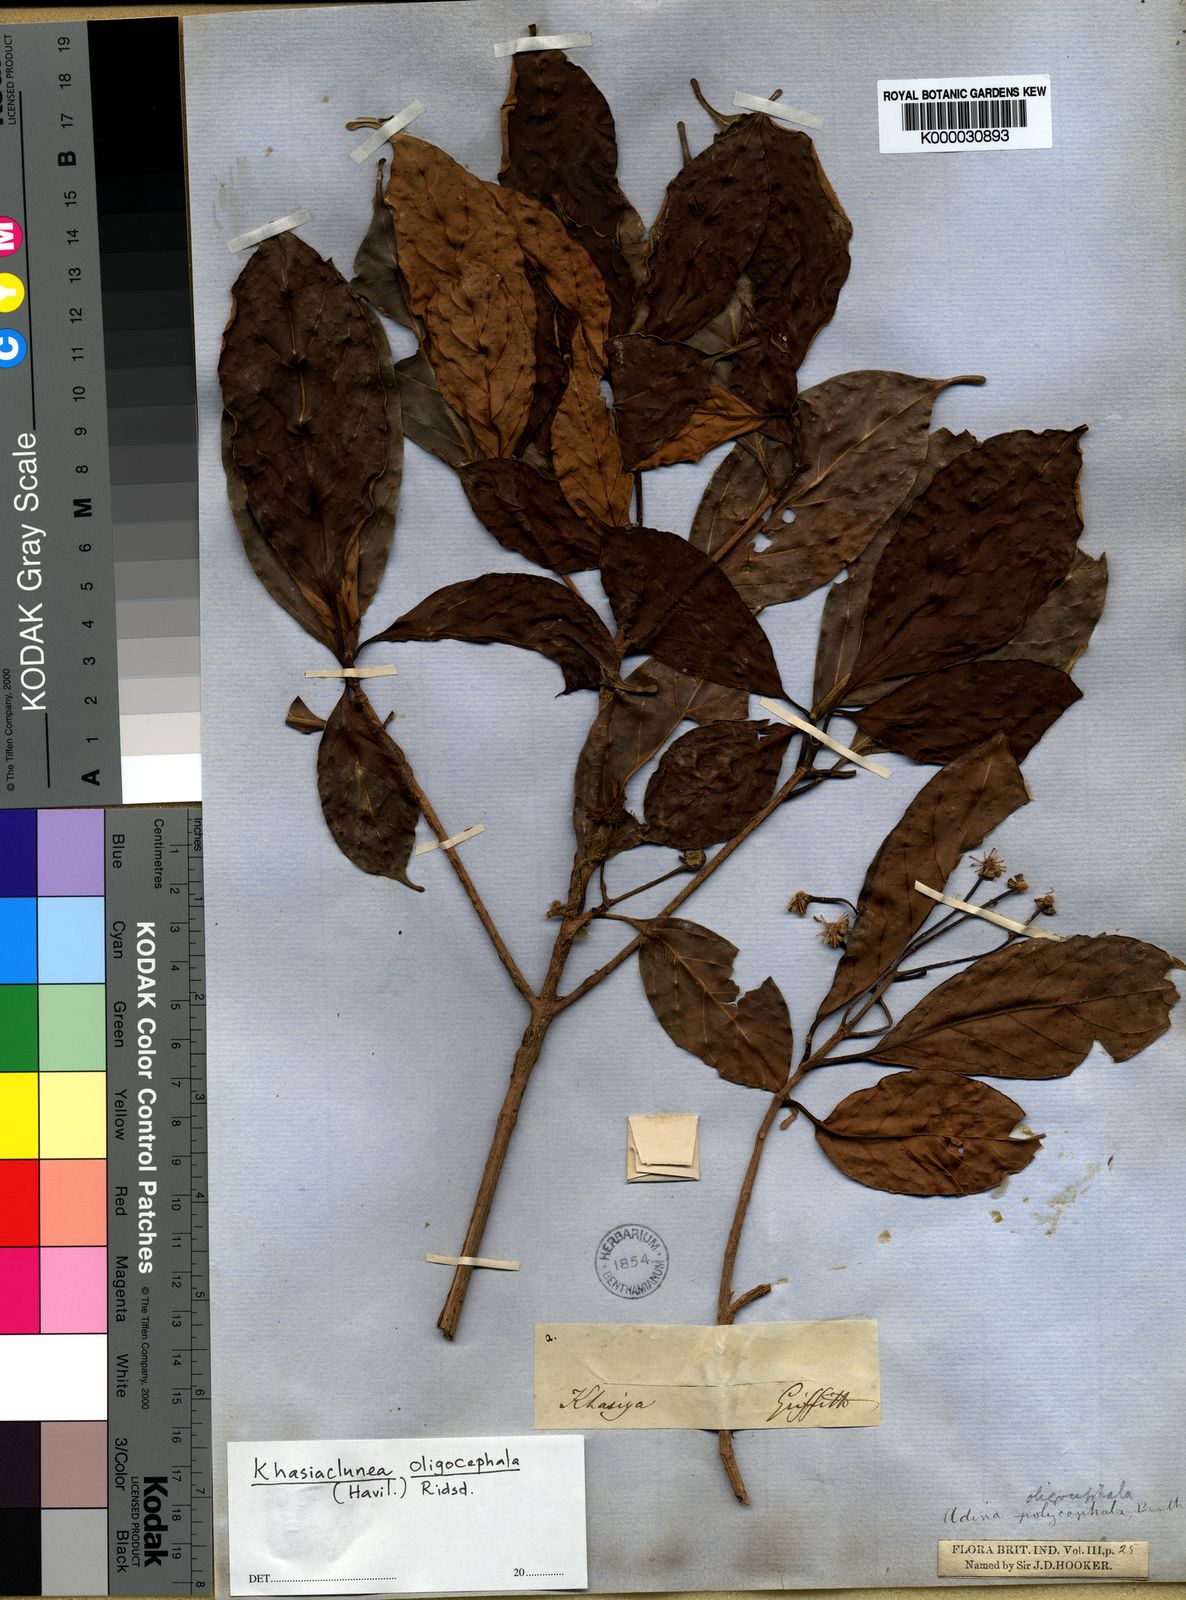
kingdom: Plantae
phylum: Tracheophyta
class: Magnoliopsida
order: Gentianales
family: Rubiaceae
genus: Khasiaclunea
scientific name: Khasiaclunea oligocephala
